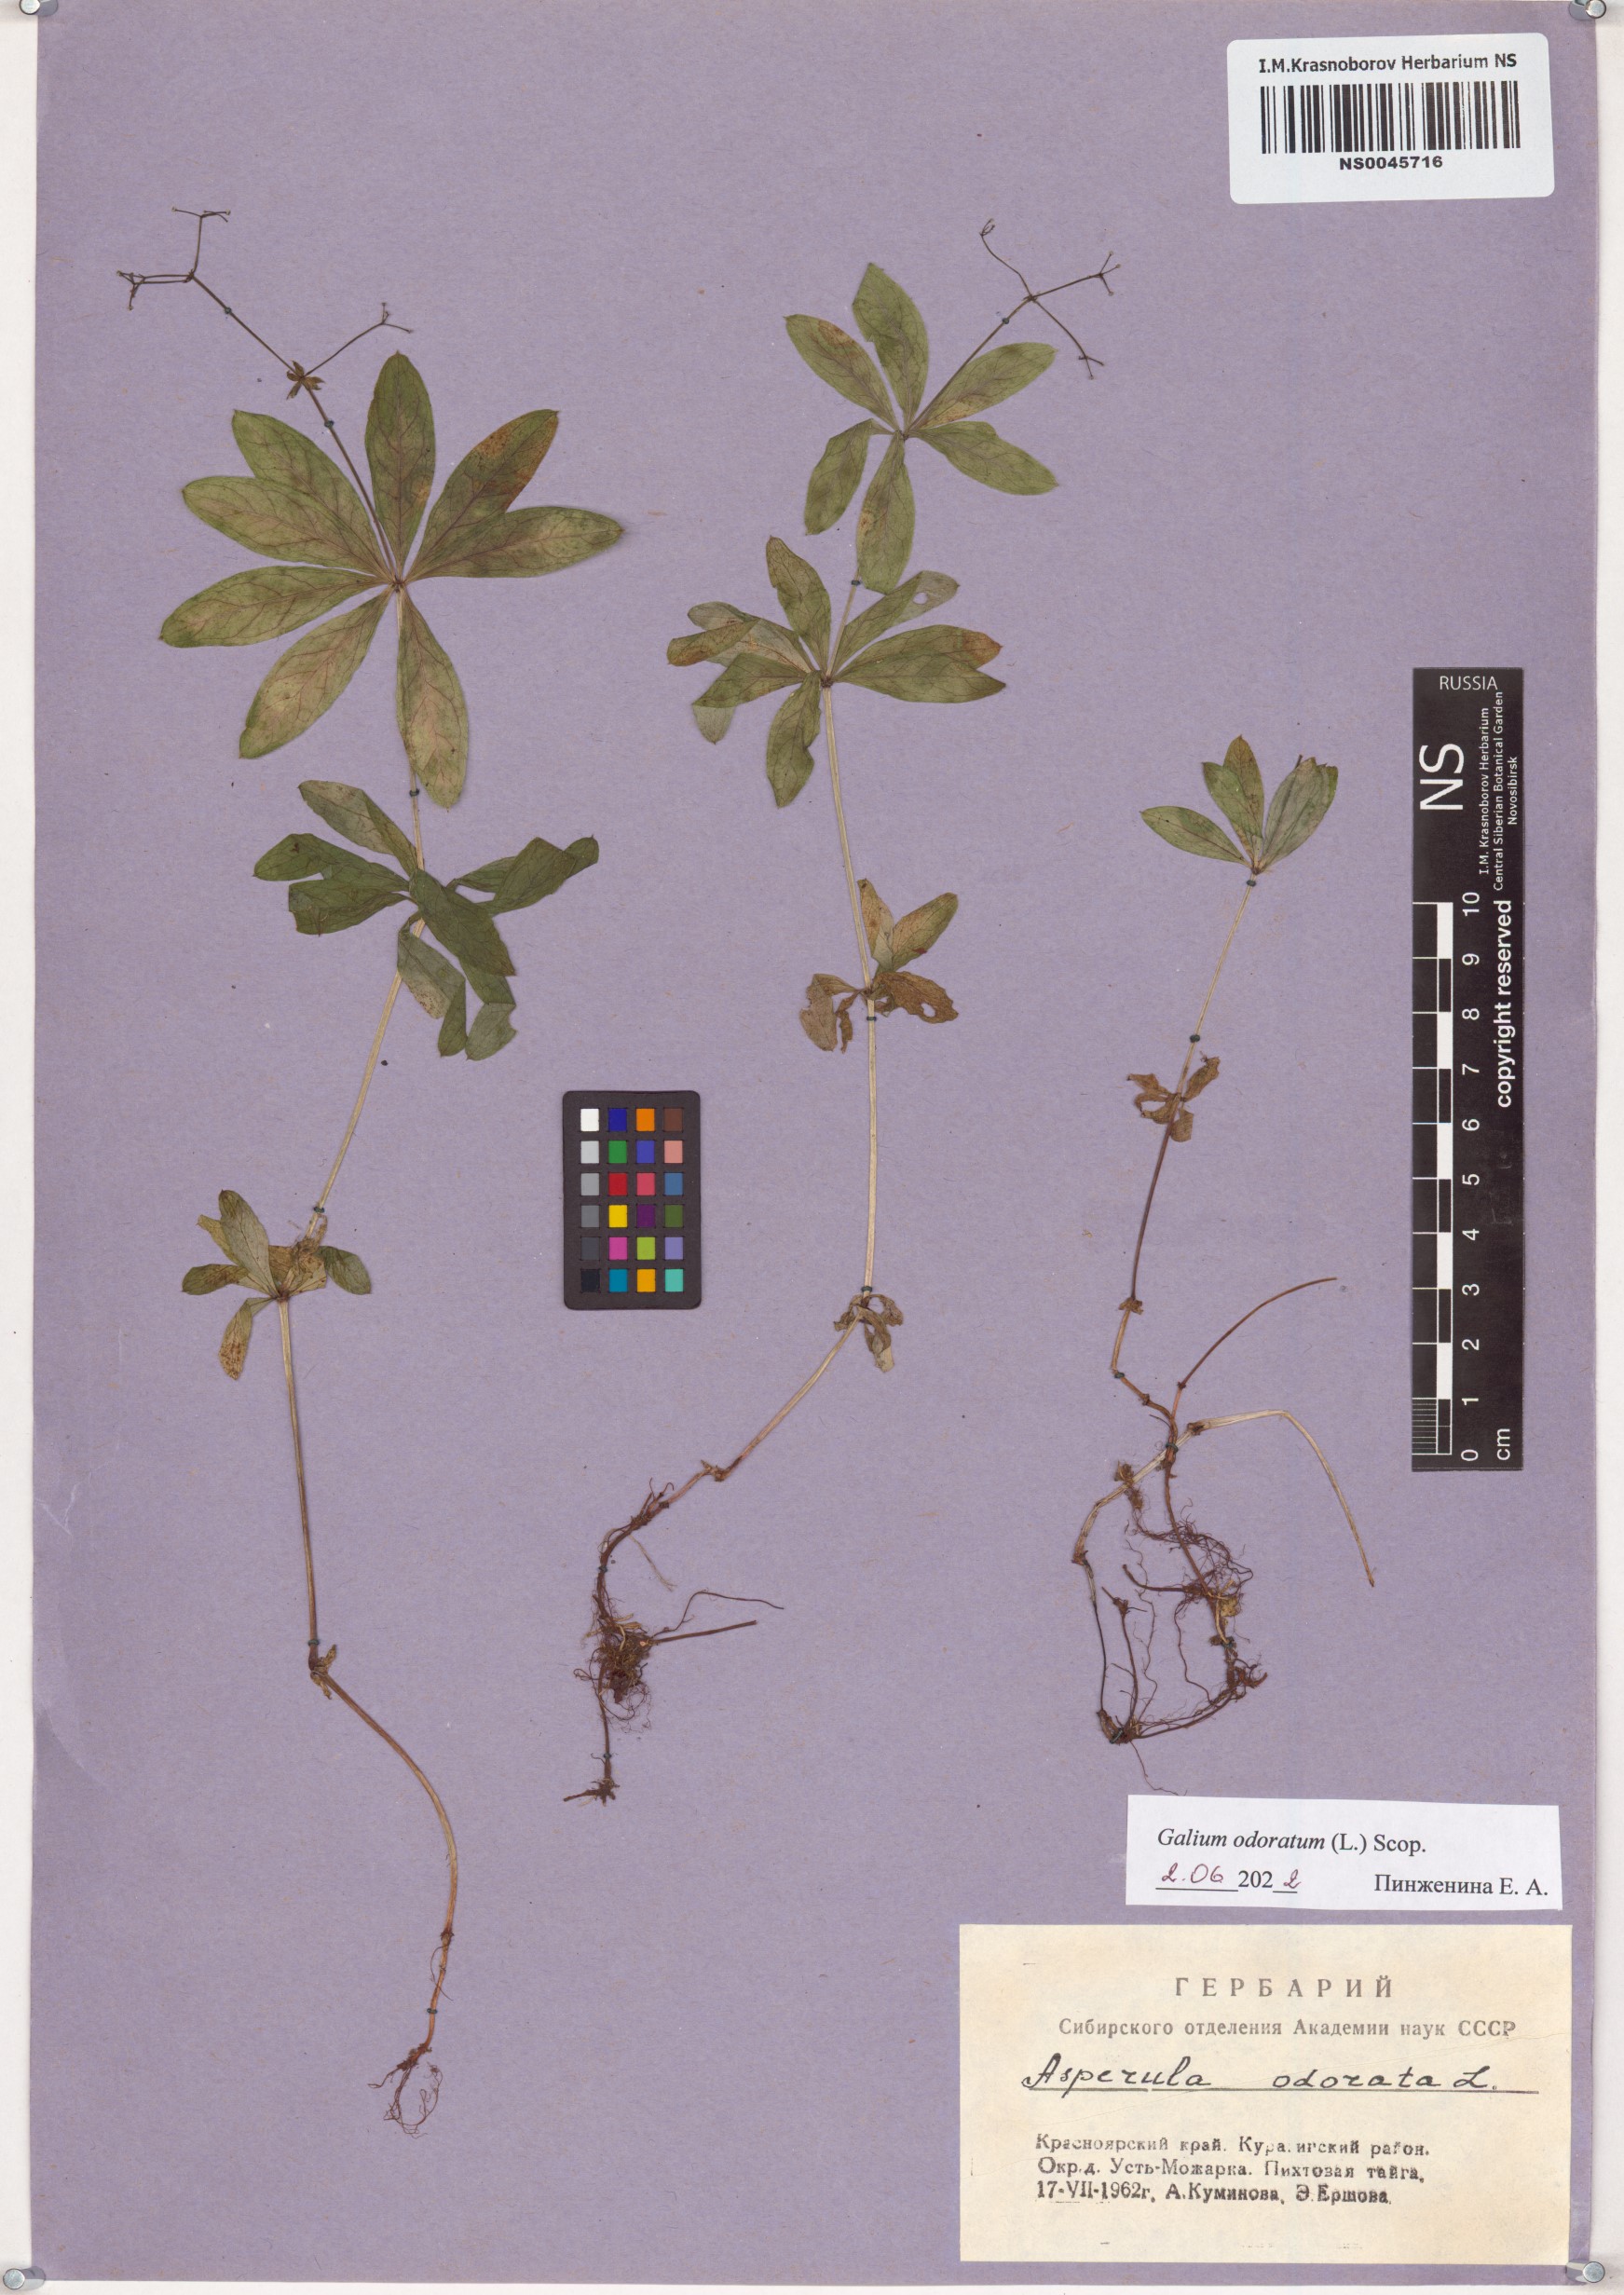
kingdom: Plantae
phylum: Tracheophyta
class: Magnoliopsida
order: Gentianales
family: Rubiaceae
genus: Galium
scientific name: Galium odoratum
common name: Sweet woodruff
